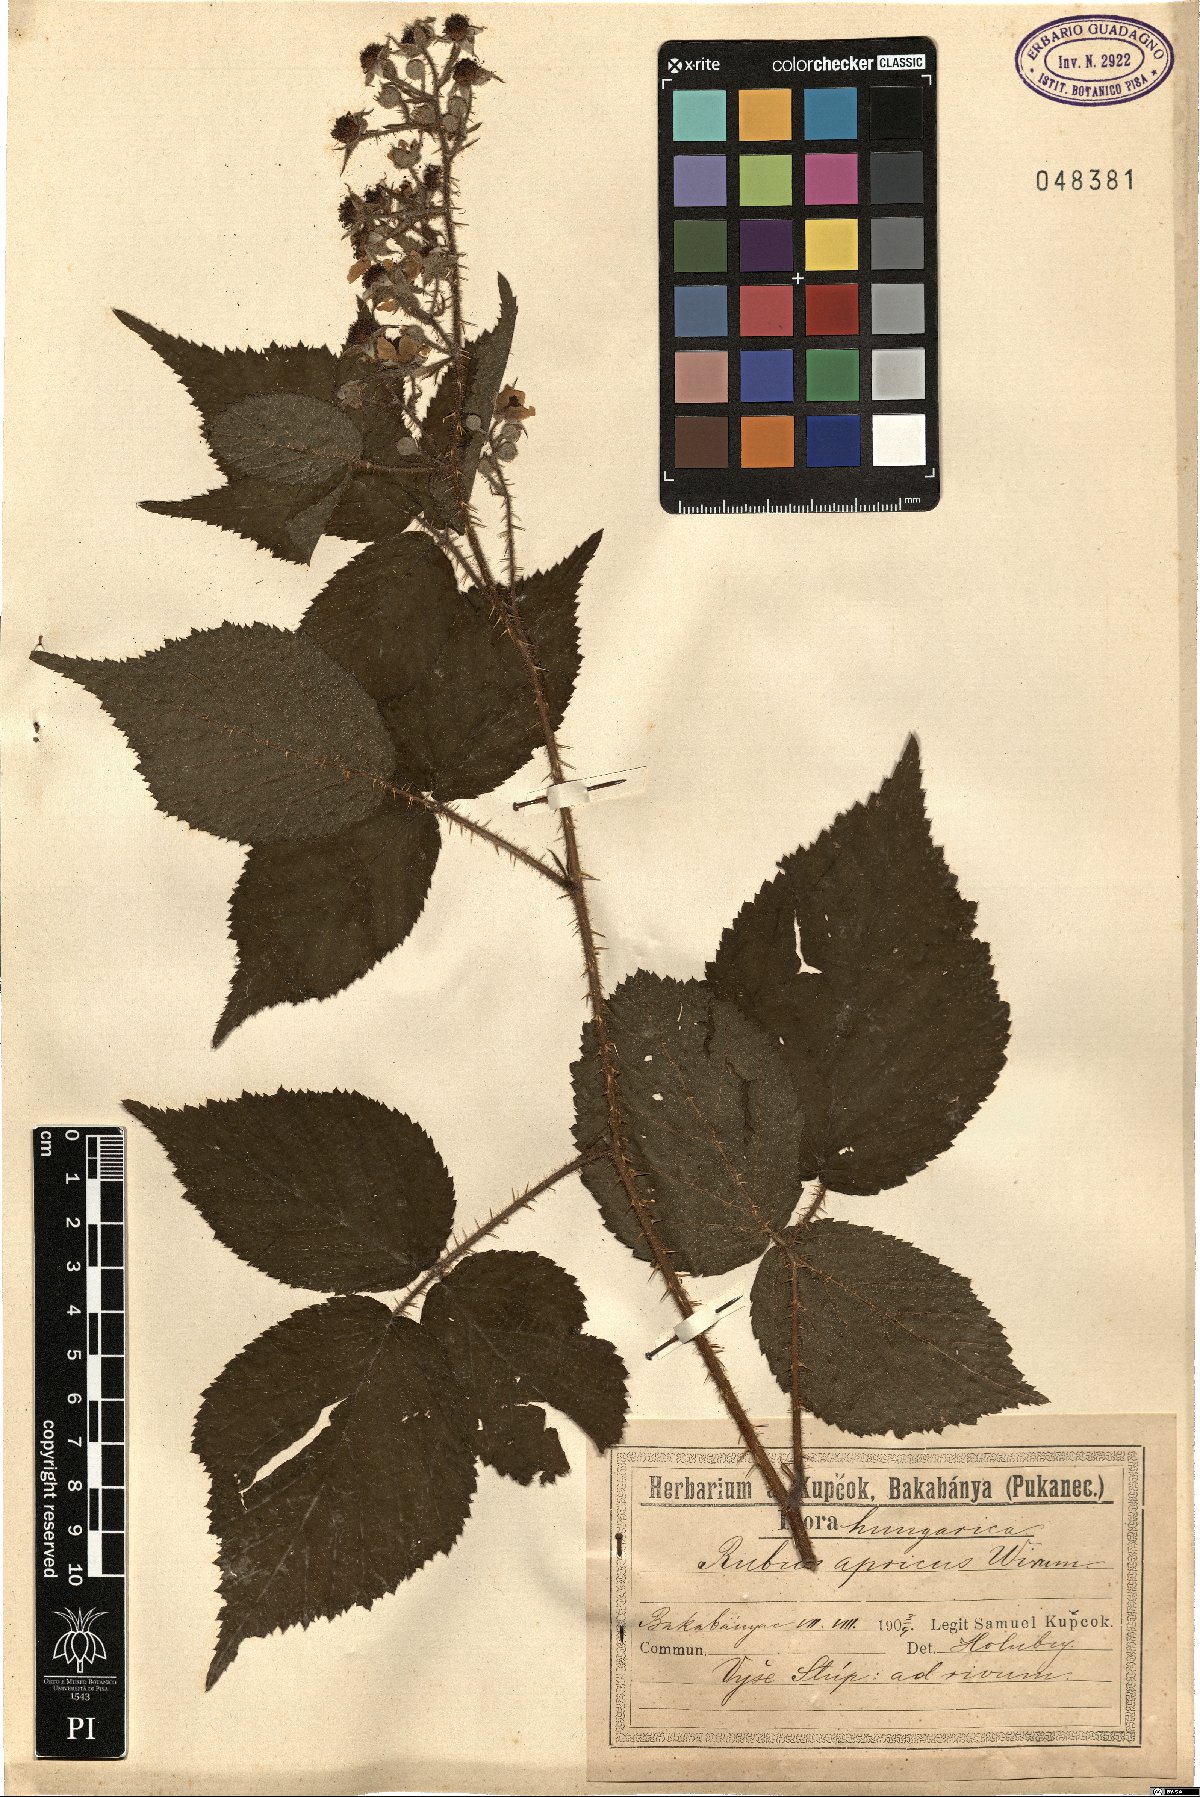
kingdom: Plantae
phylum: Tracheophyta
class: Magnoliopsida
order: Rosales
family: Rosaceae
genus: Rubus
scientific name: Rubus apricus
